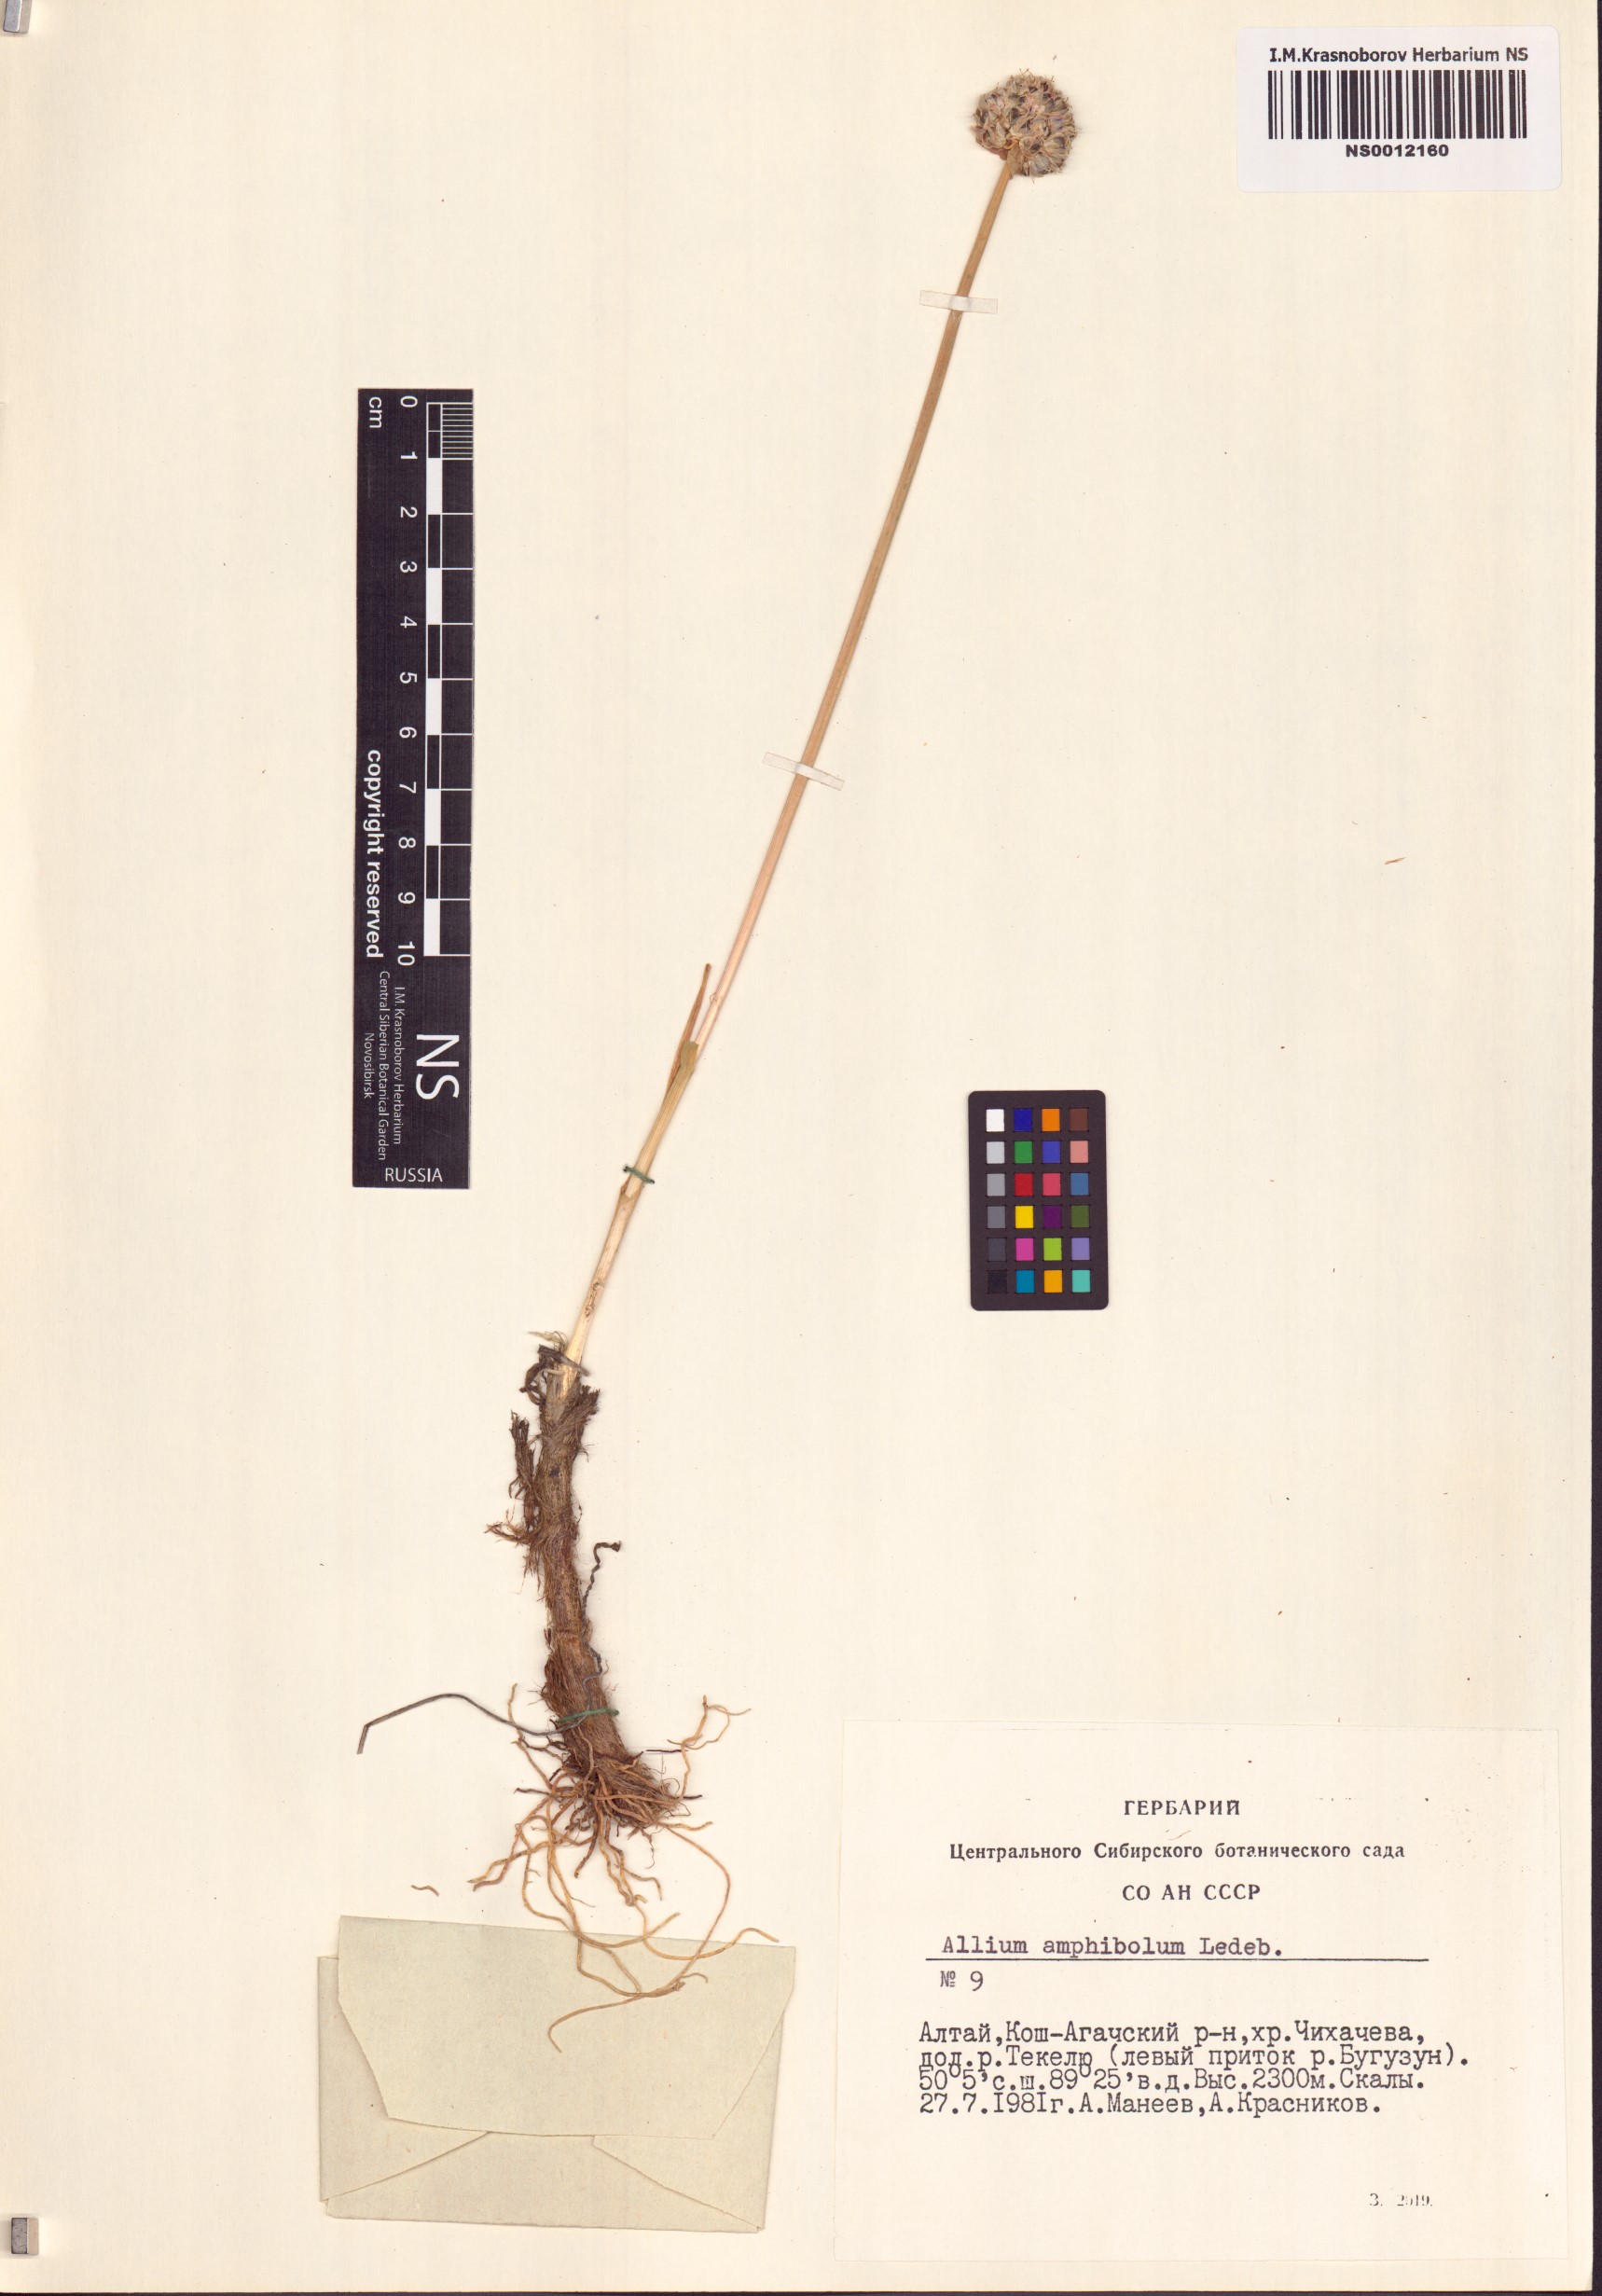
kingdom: Plantae
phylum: Tracheophyta
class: Liliopsida
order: Asparagales
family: Amaryllidaceae
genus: Allium
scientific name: Allium amphibolum
